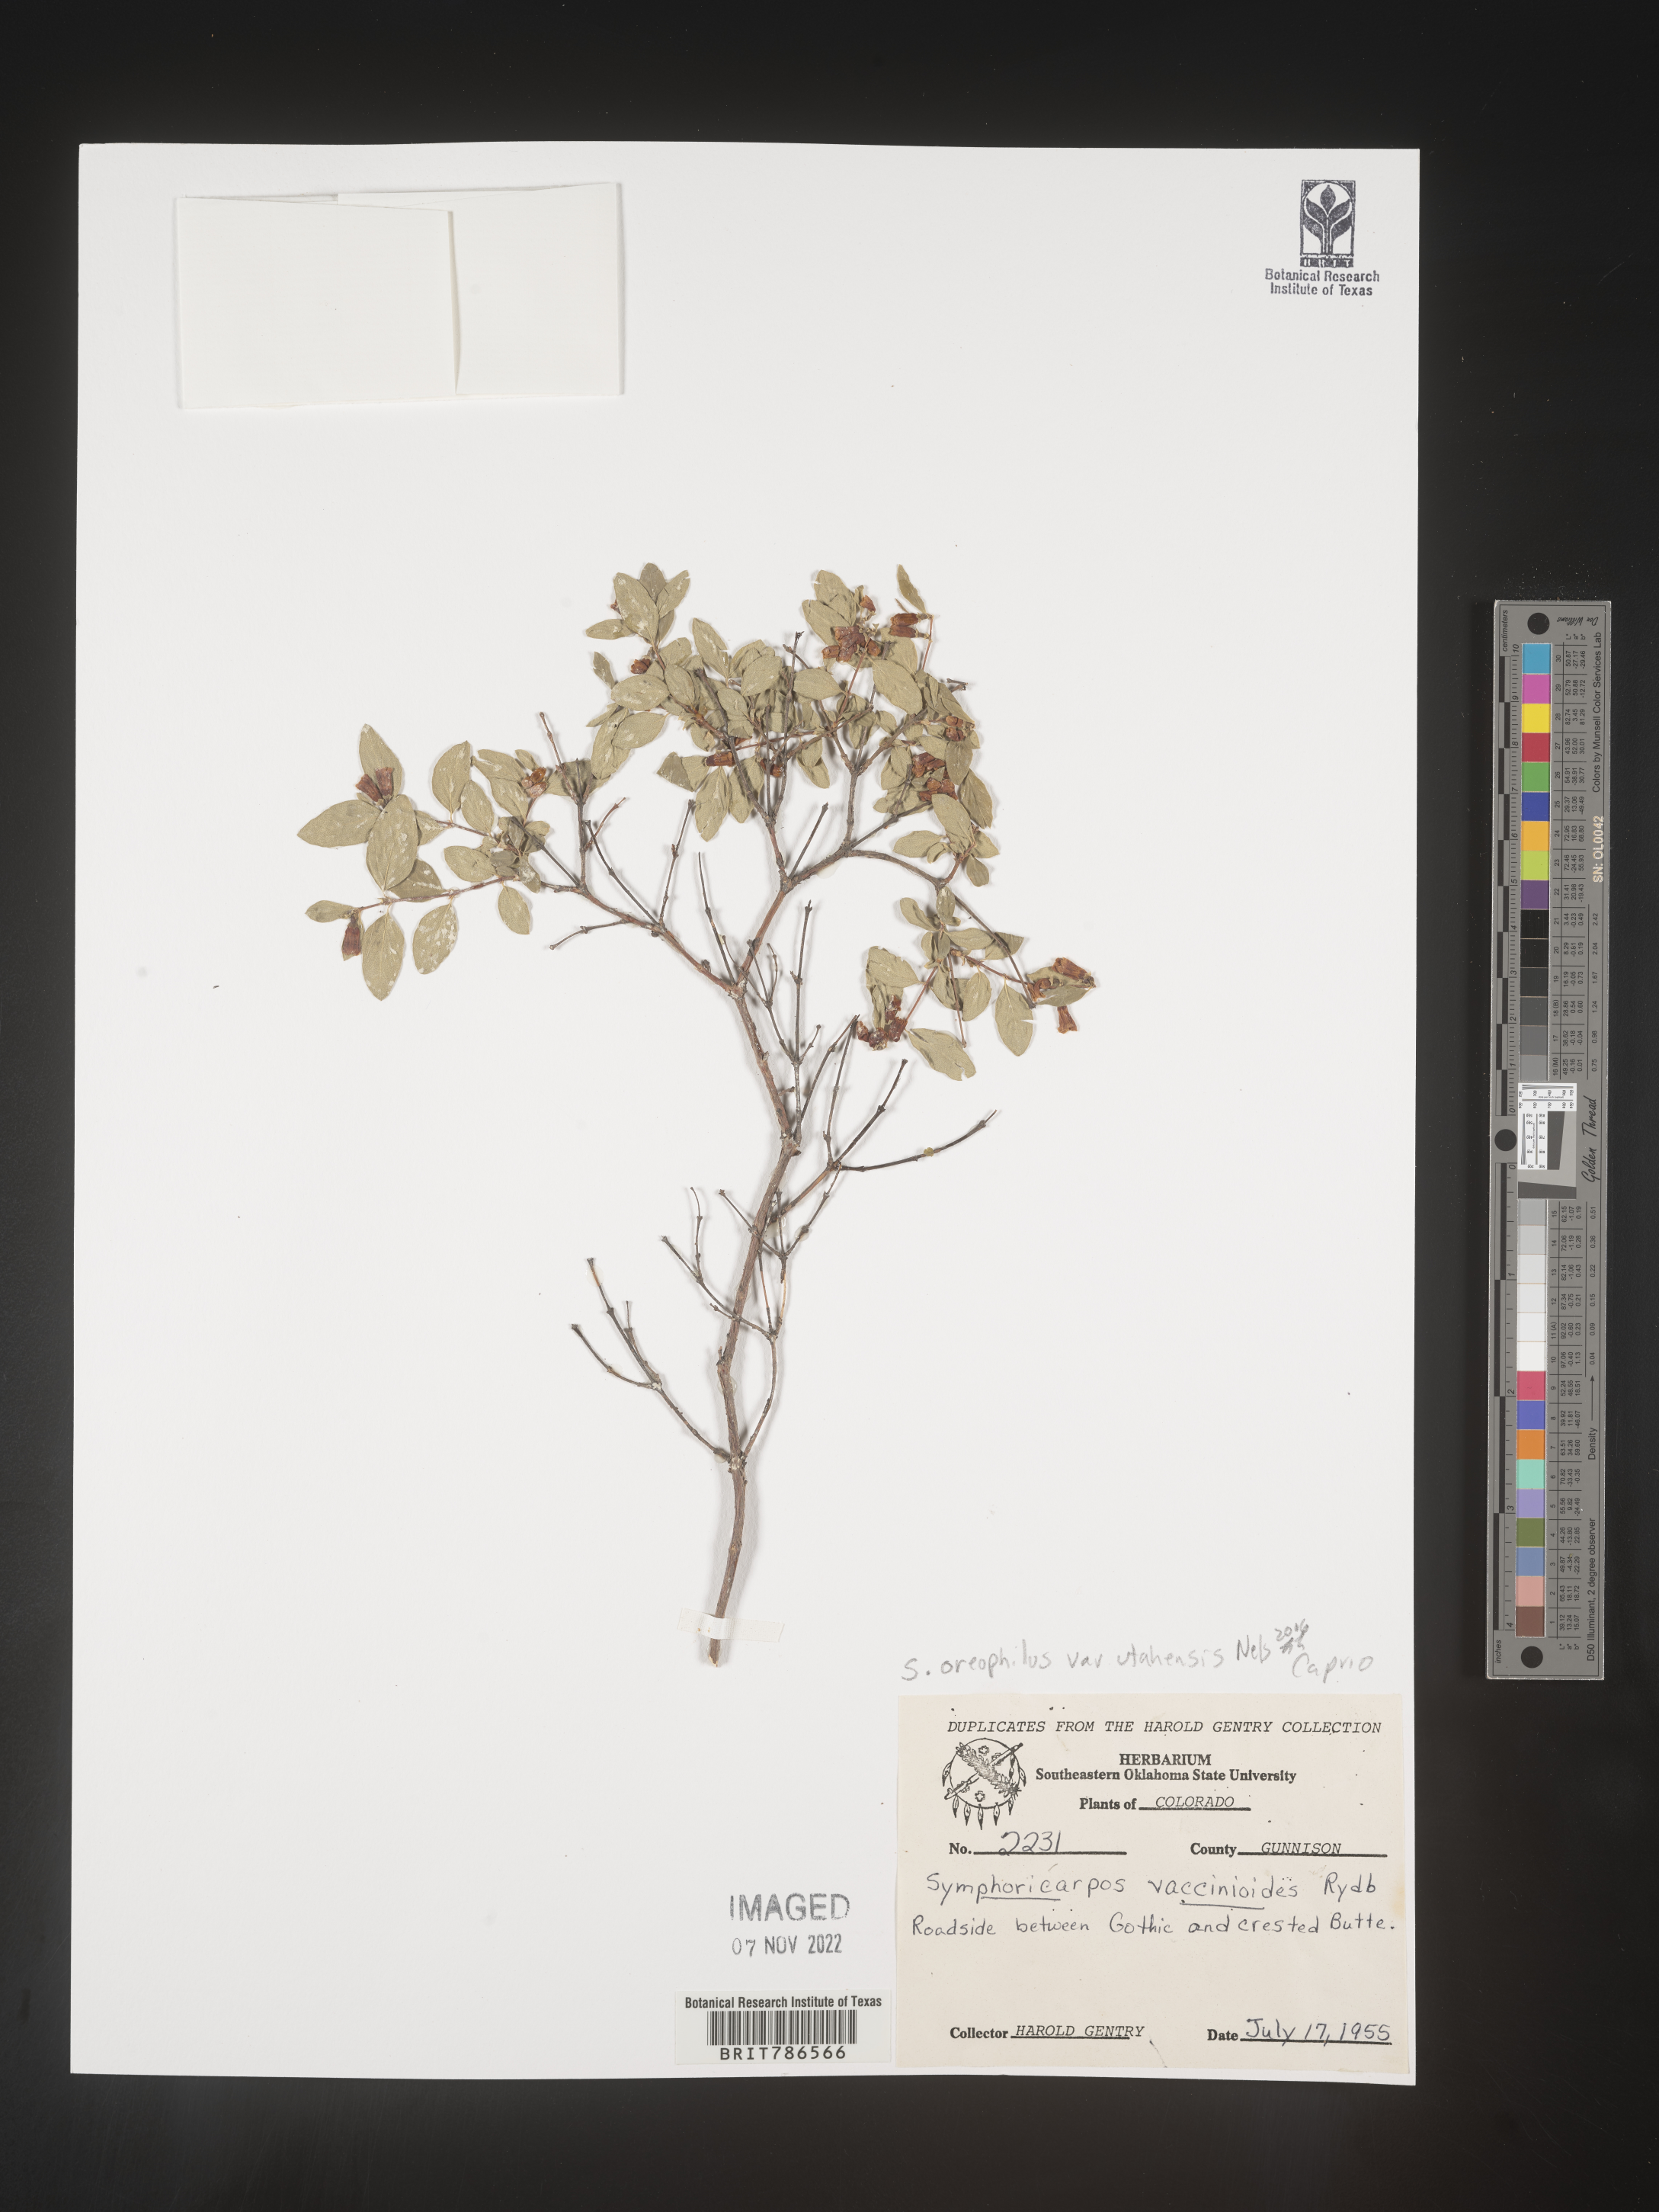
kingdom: Plantae
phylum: Tracheophyta
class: Magnoliopsida
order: Dipsacales
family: Caprifoliaceae
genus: Symphoricarpos
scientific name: Symphoricarpos oreophilus
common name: Mountain snowberry
